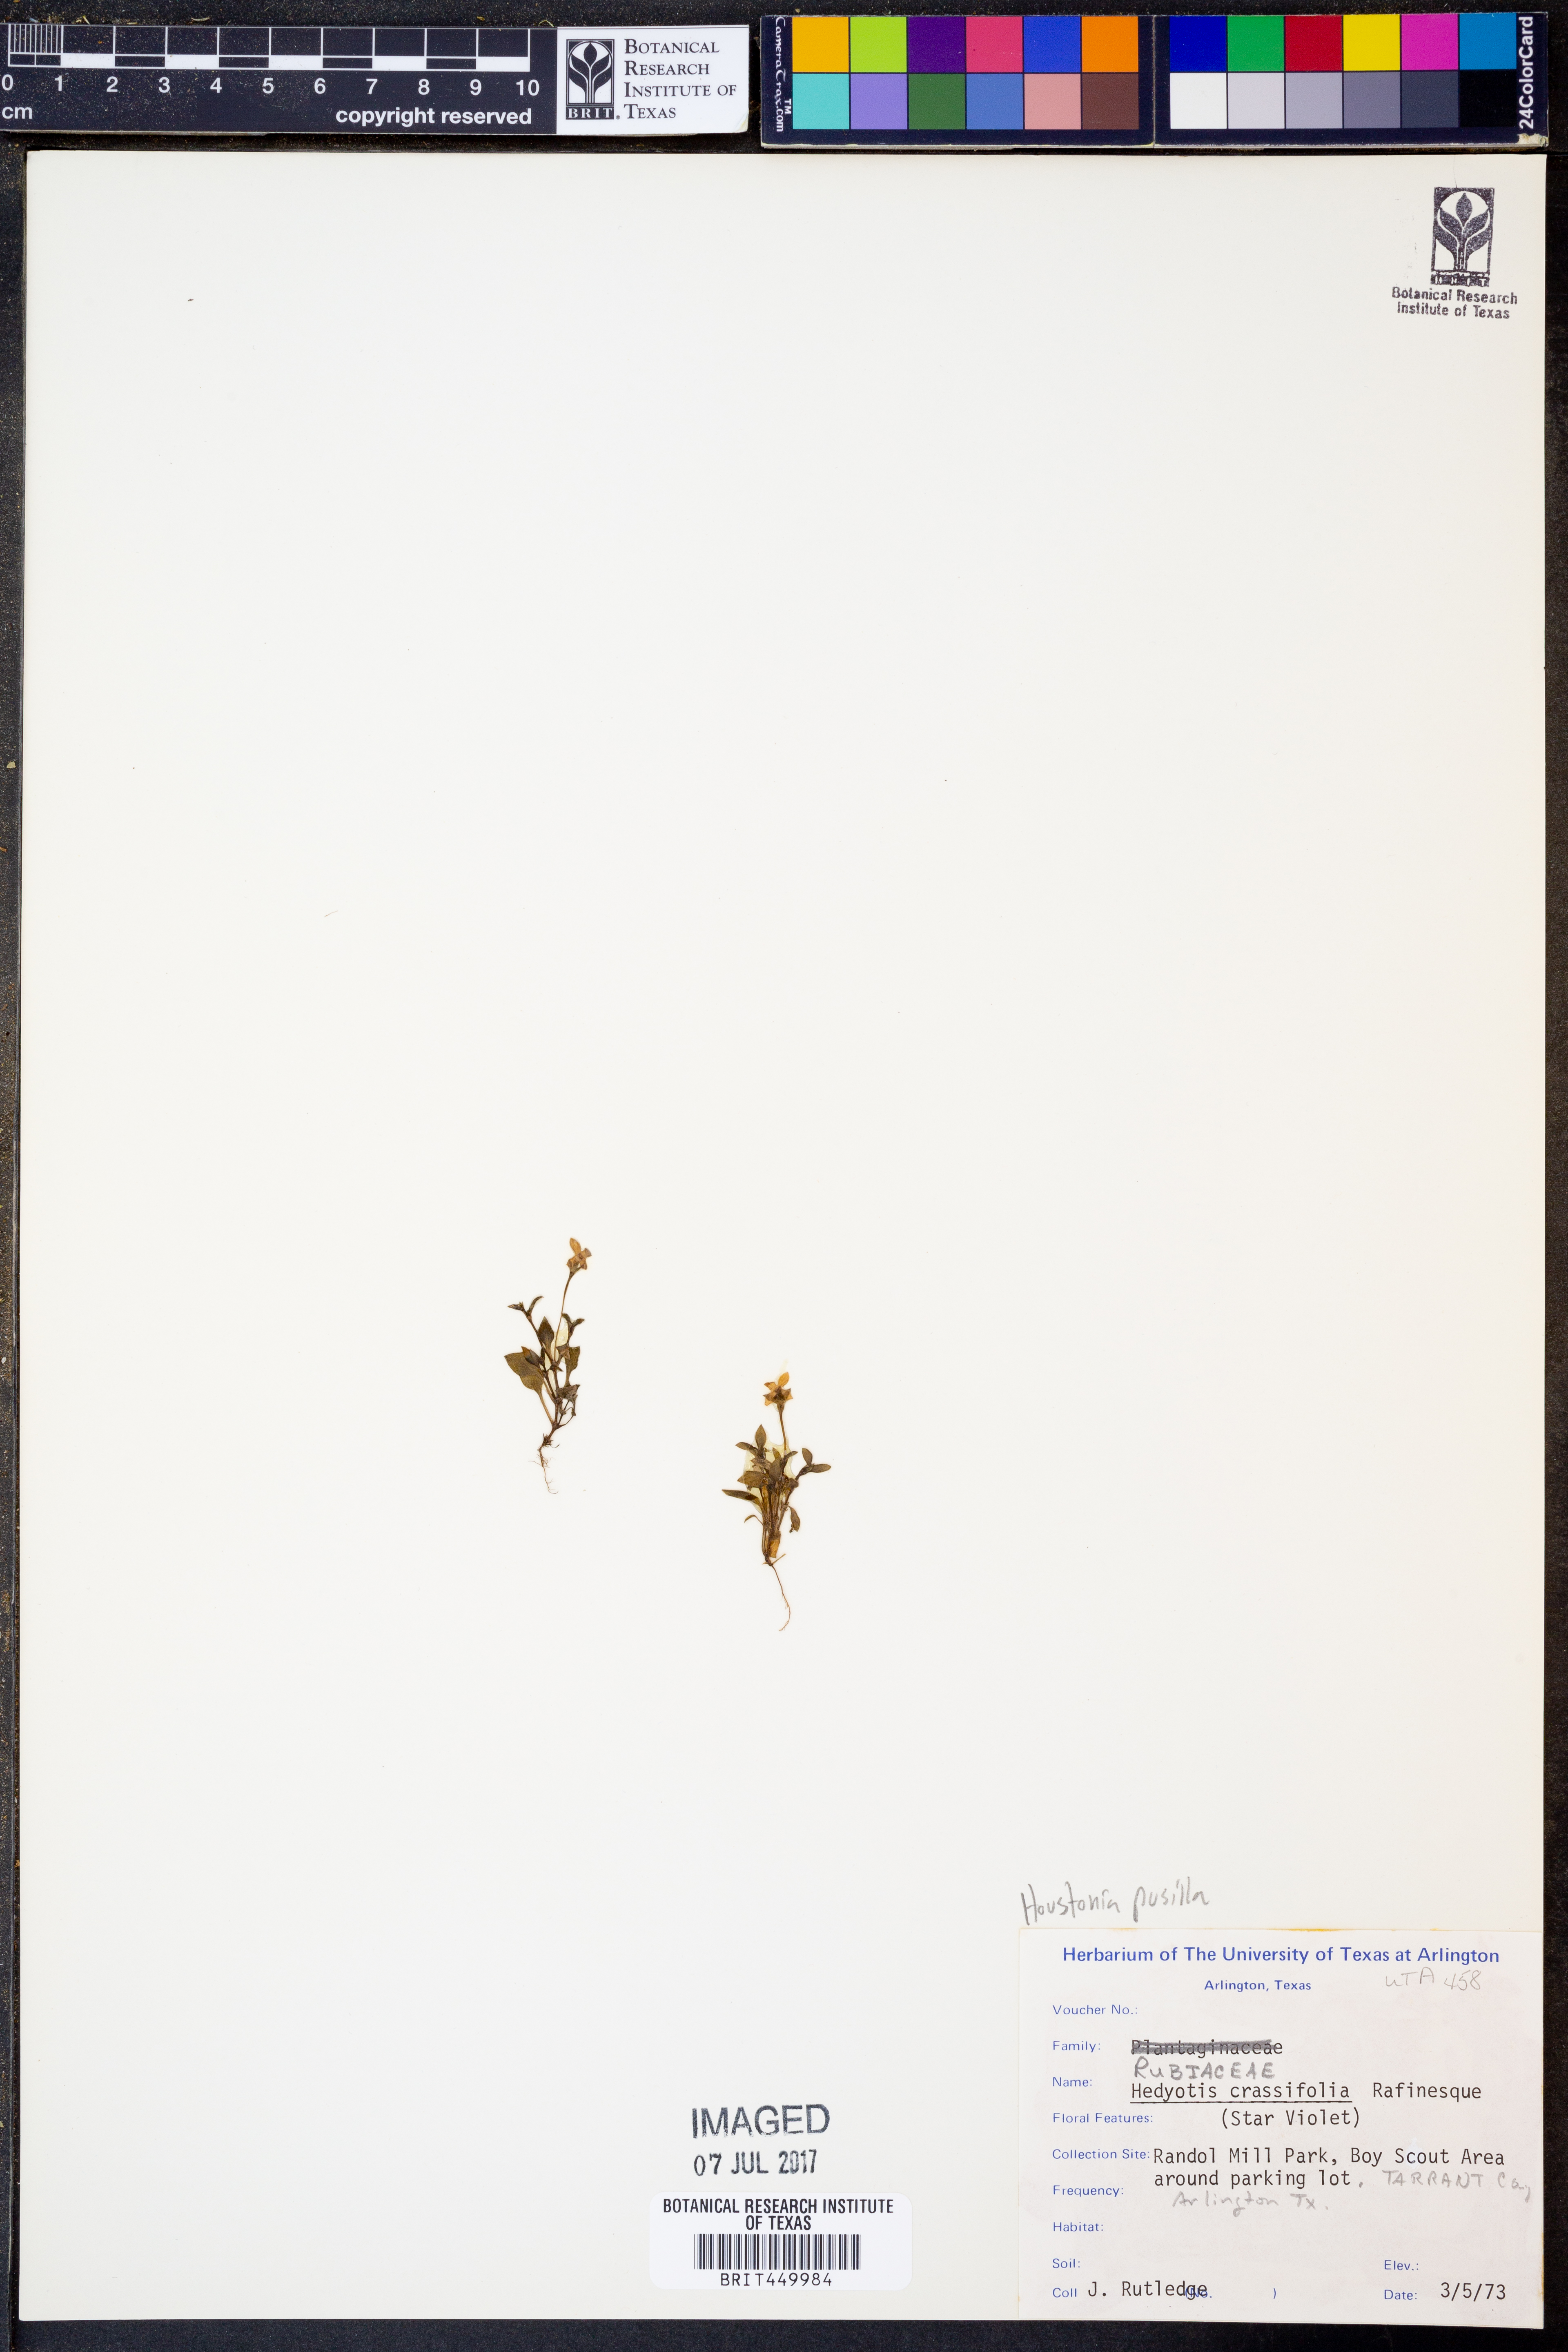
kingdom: Plantae
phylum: Tracheophyta
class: Magnoliopsida
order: Gentianales
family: Rubiaceae
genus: Houstonia
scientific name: Houstonia pusilla
